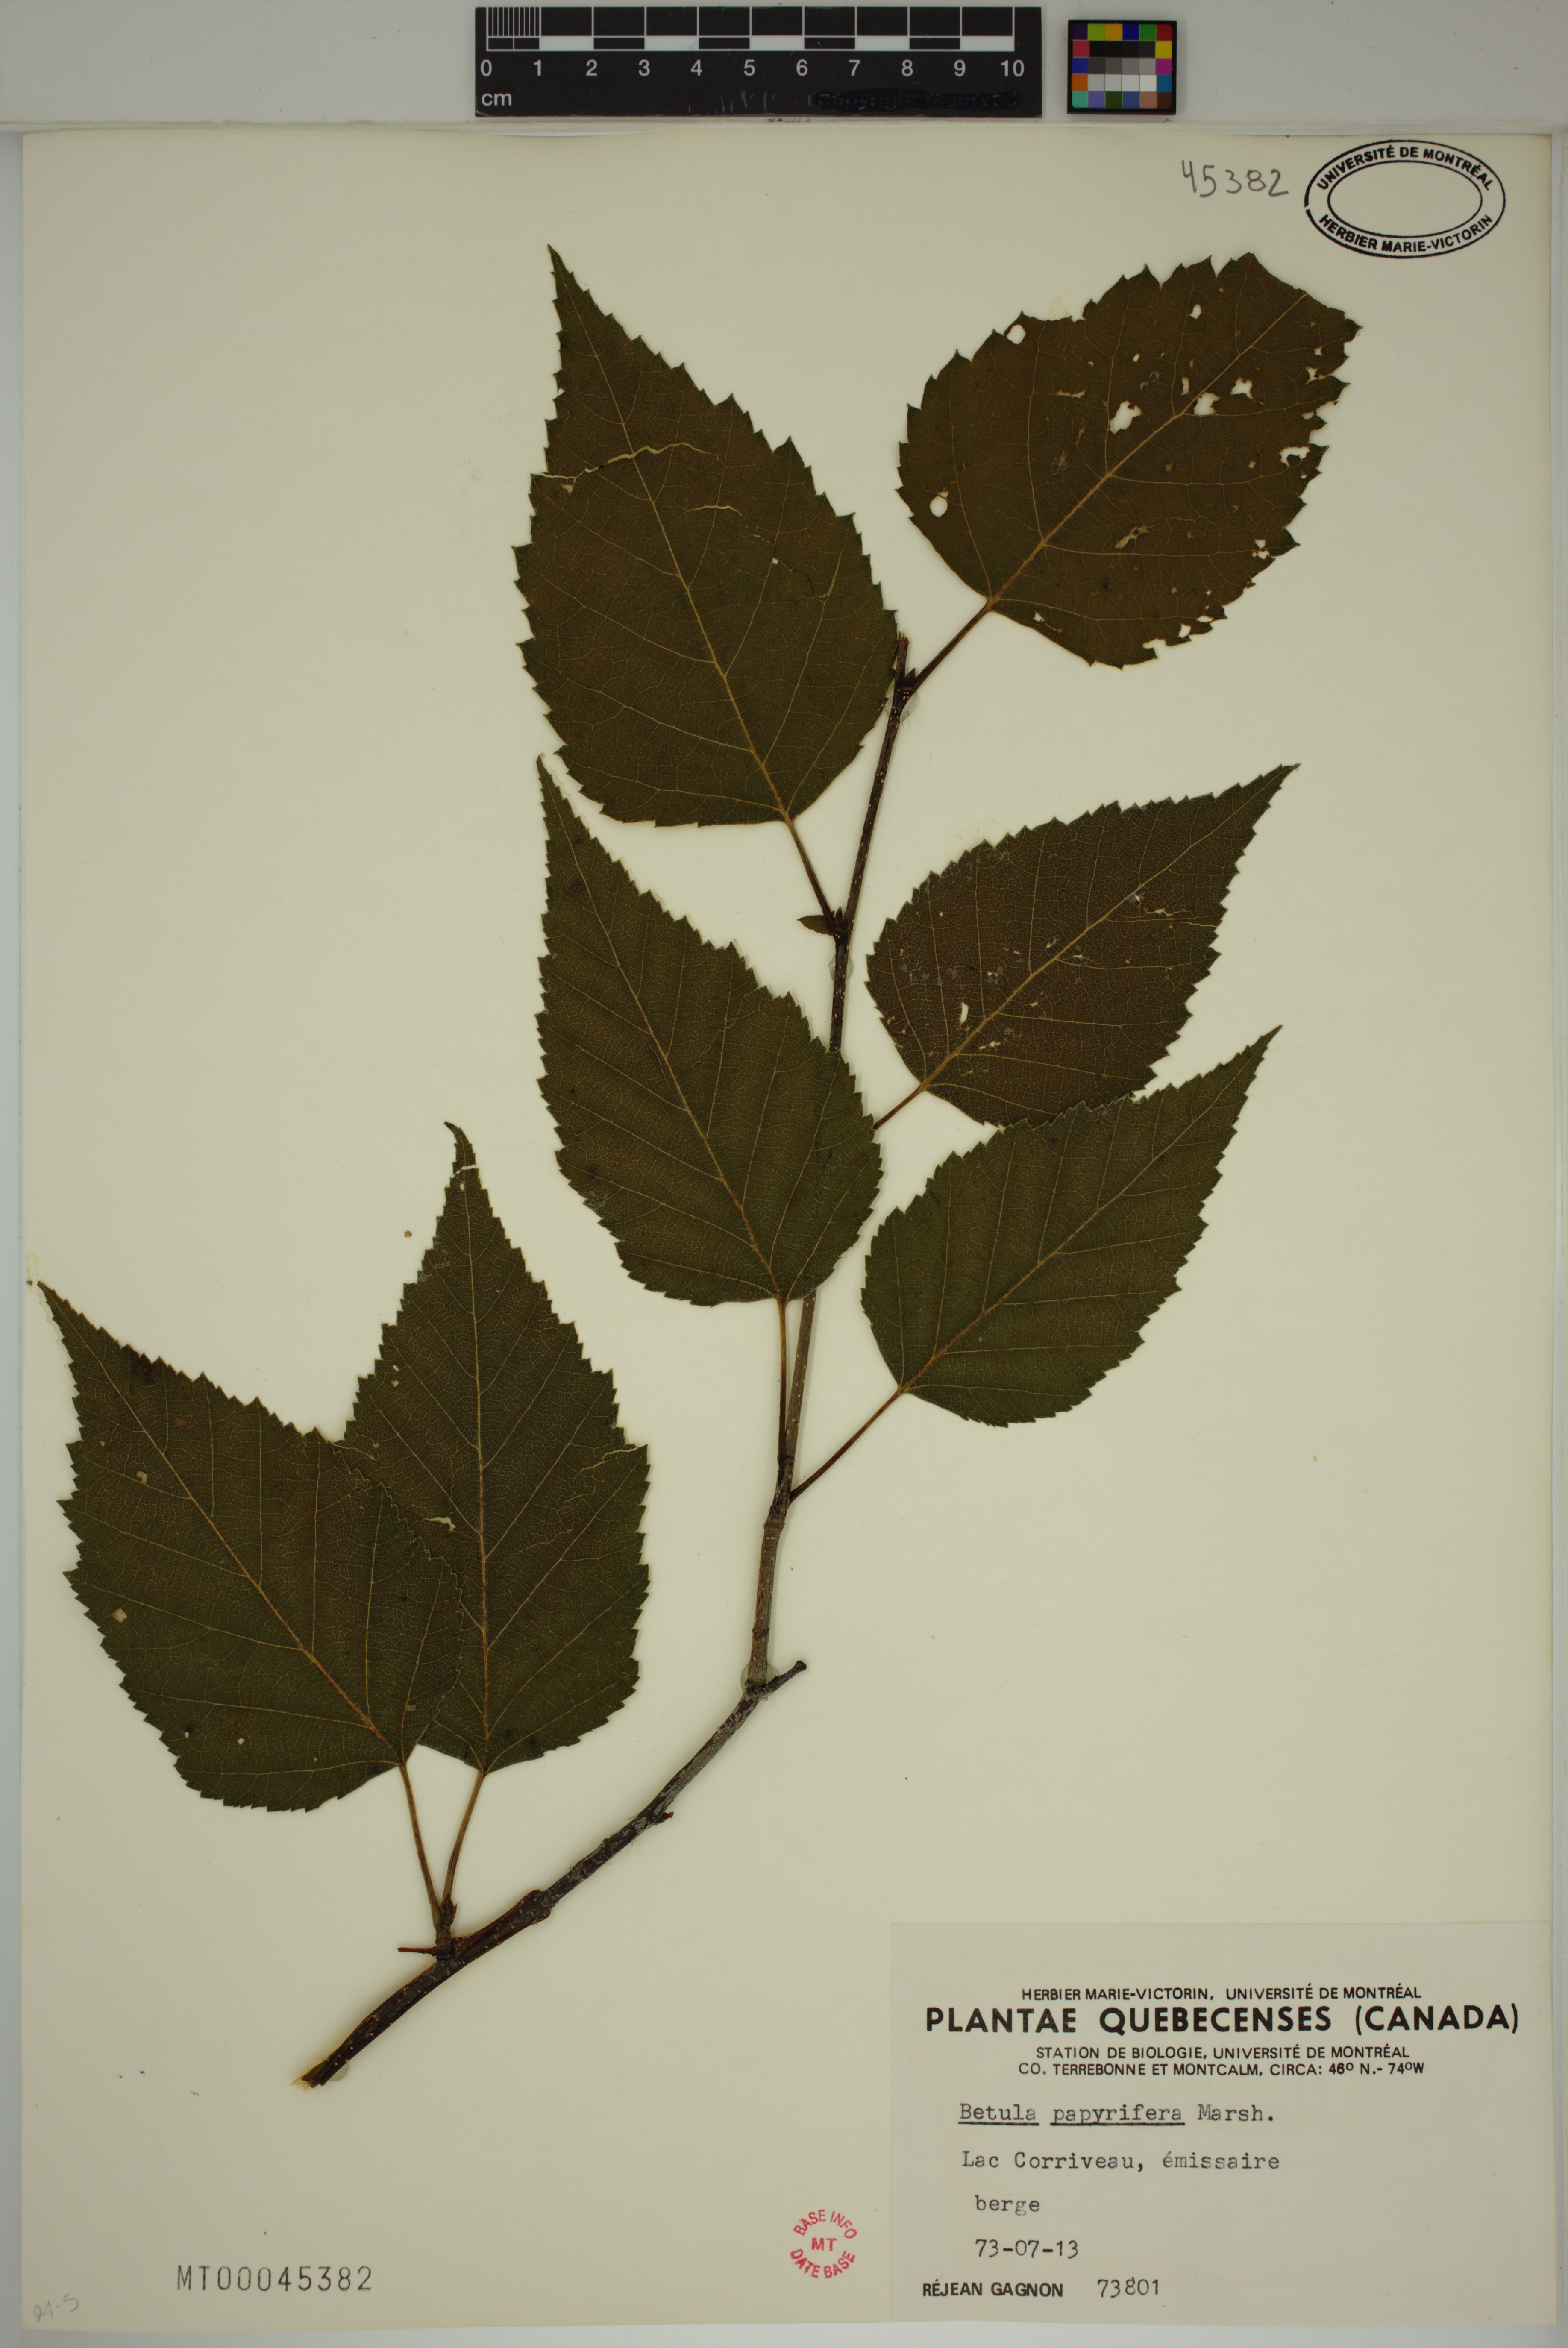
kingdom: Plantae
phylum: Tracheophyta
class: Magnoliopsida
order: Fagales
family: Betulaceae
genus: Betula
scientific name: Betula papyrifera
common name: Paper birch
